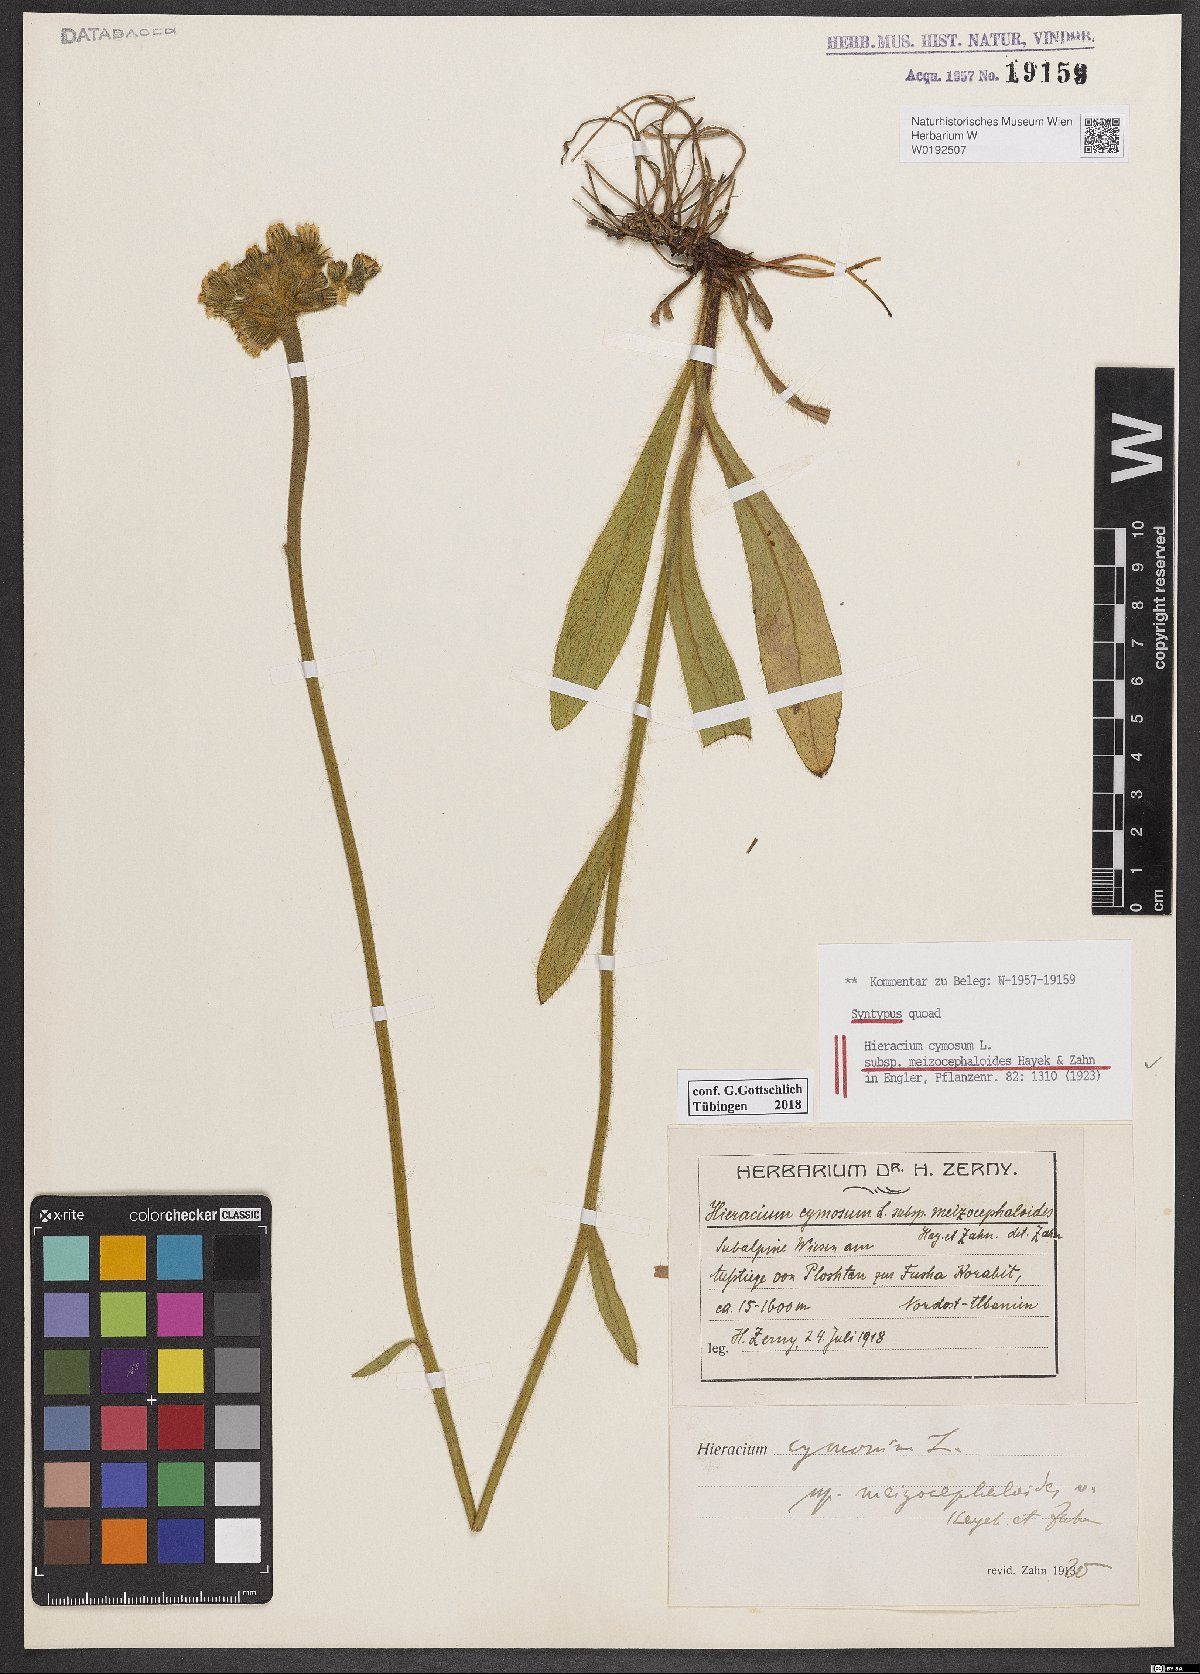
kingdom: Plantae
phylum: Tracheophyta
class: Magnoliopsida
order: Asterales
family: Asteraceae
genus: Pilosella
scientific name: Pilosella cymosa
